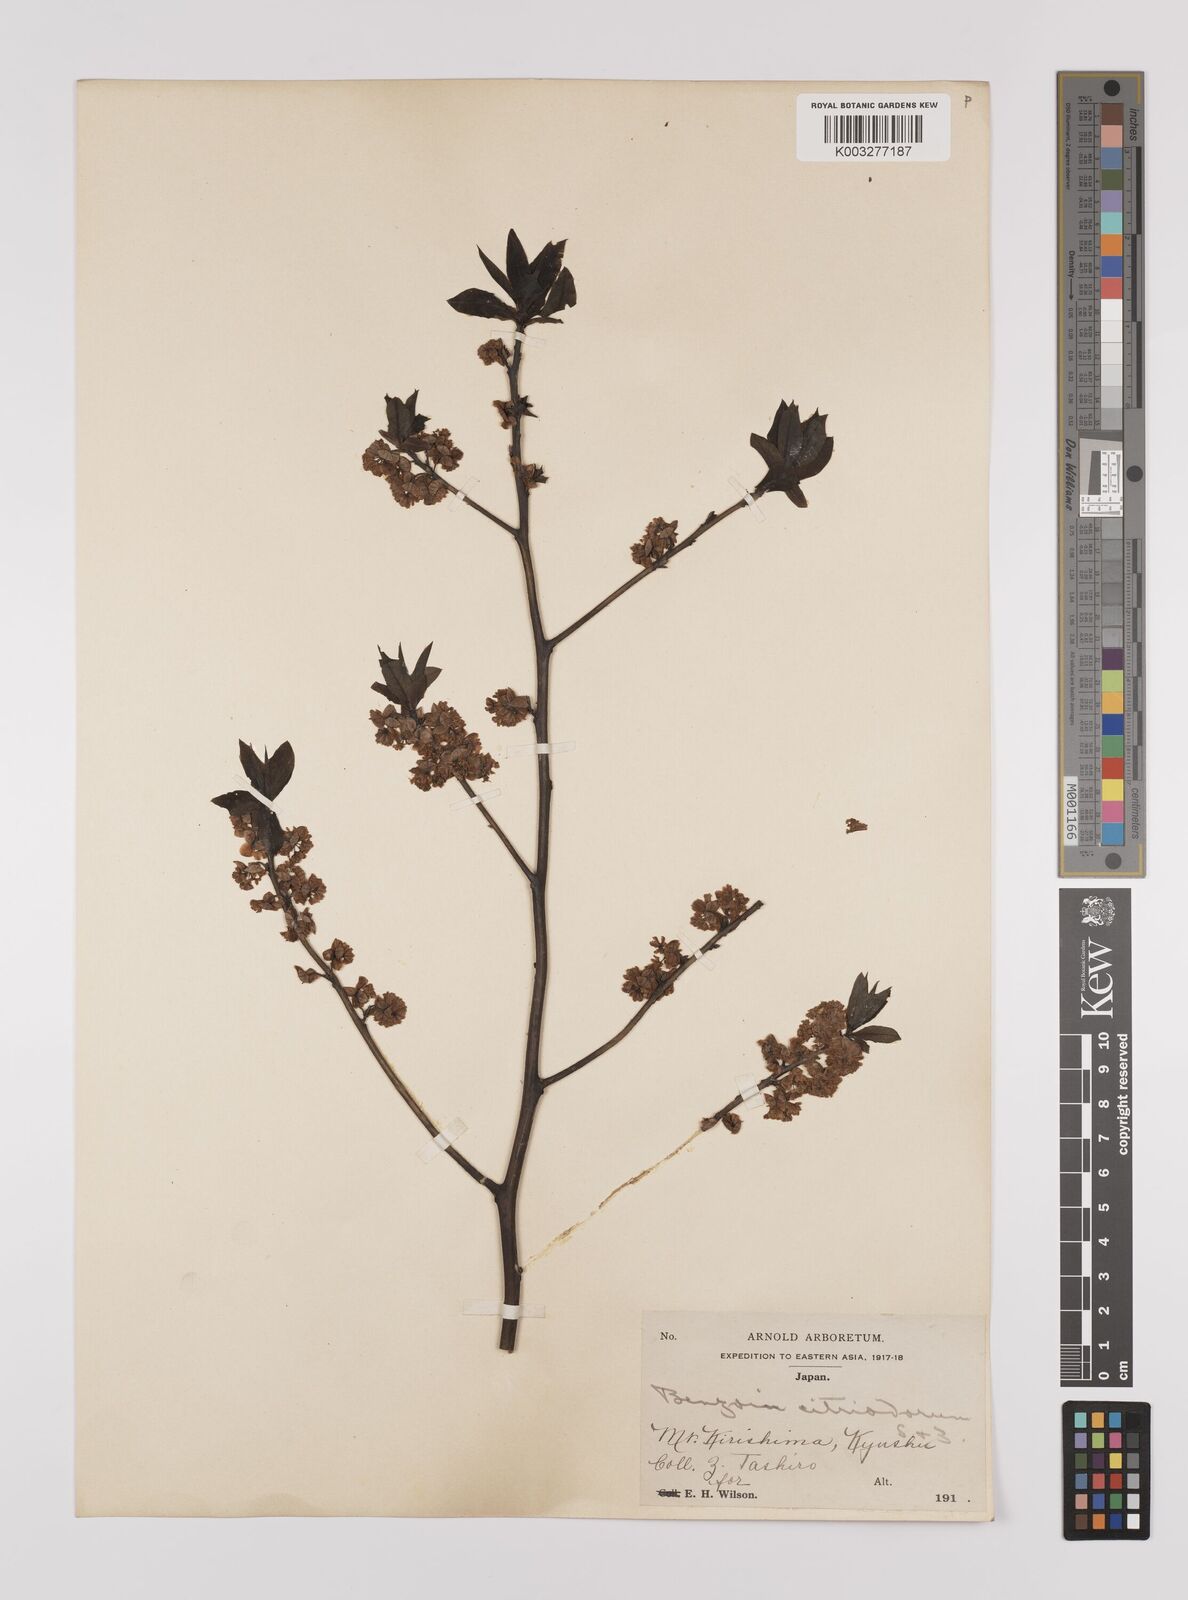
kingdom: Plantae
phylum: Tracheophyta
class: Magnoliopsida
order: Laurales
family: Lauraceae
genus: Lindera
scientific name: Lindera citriodora
